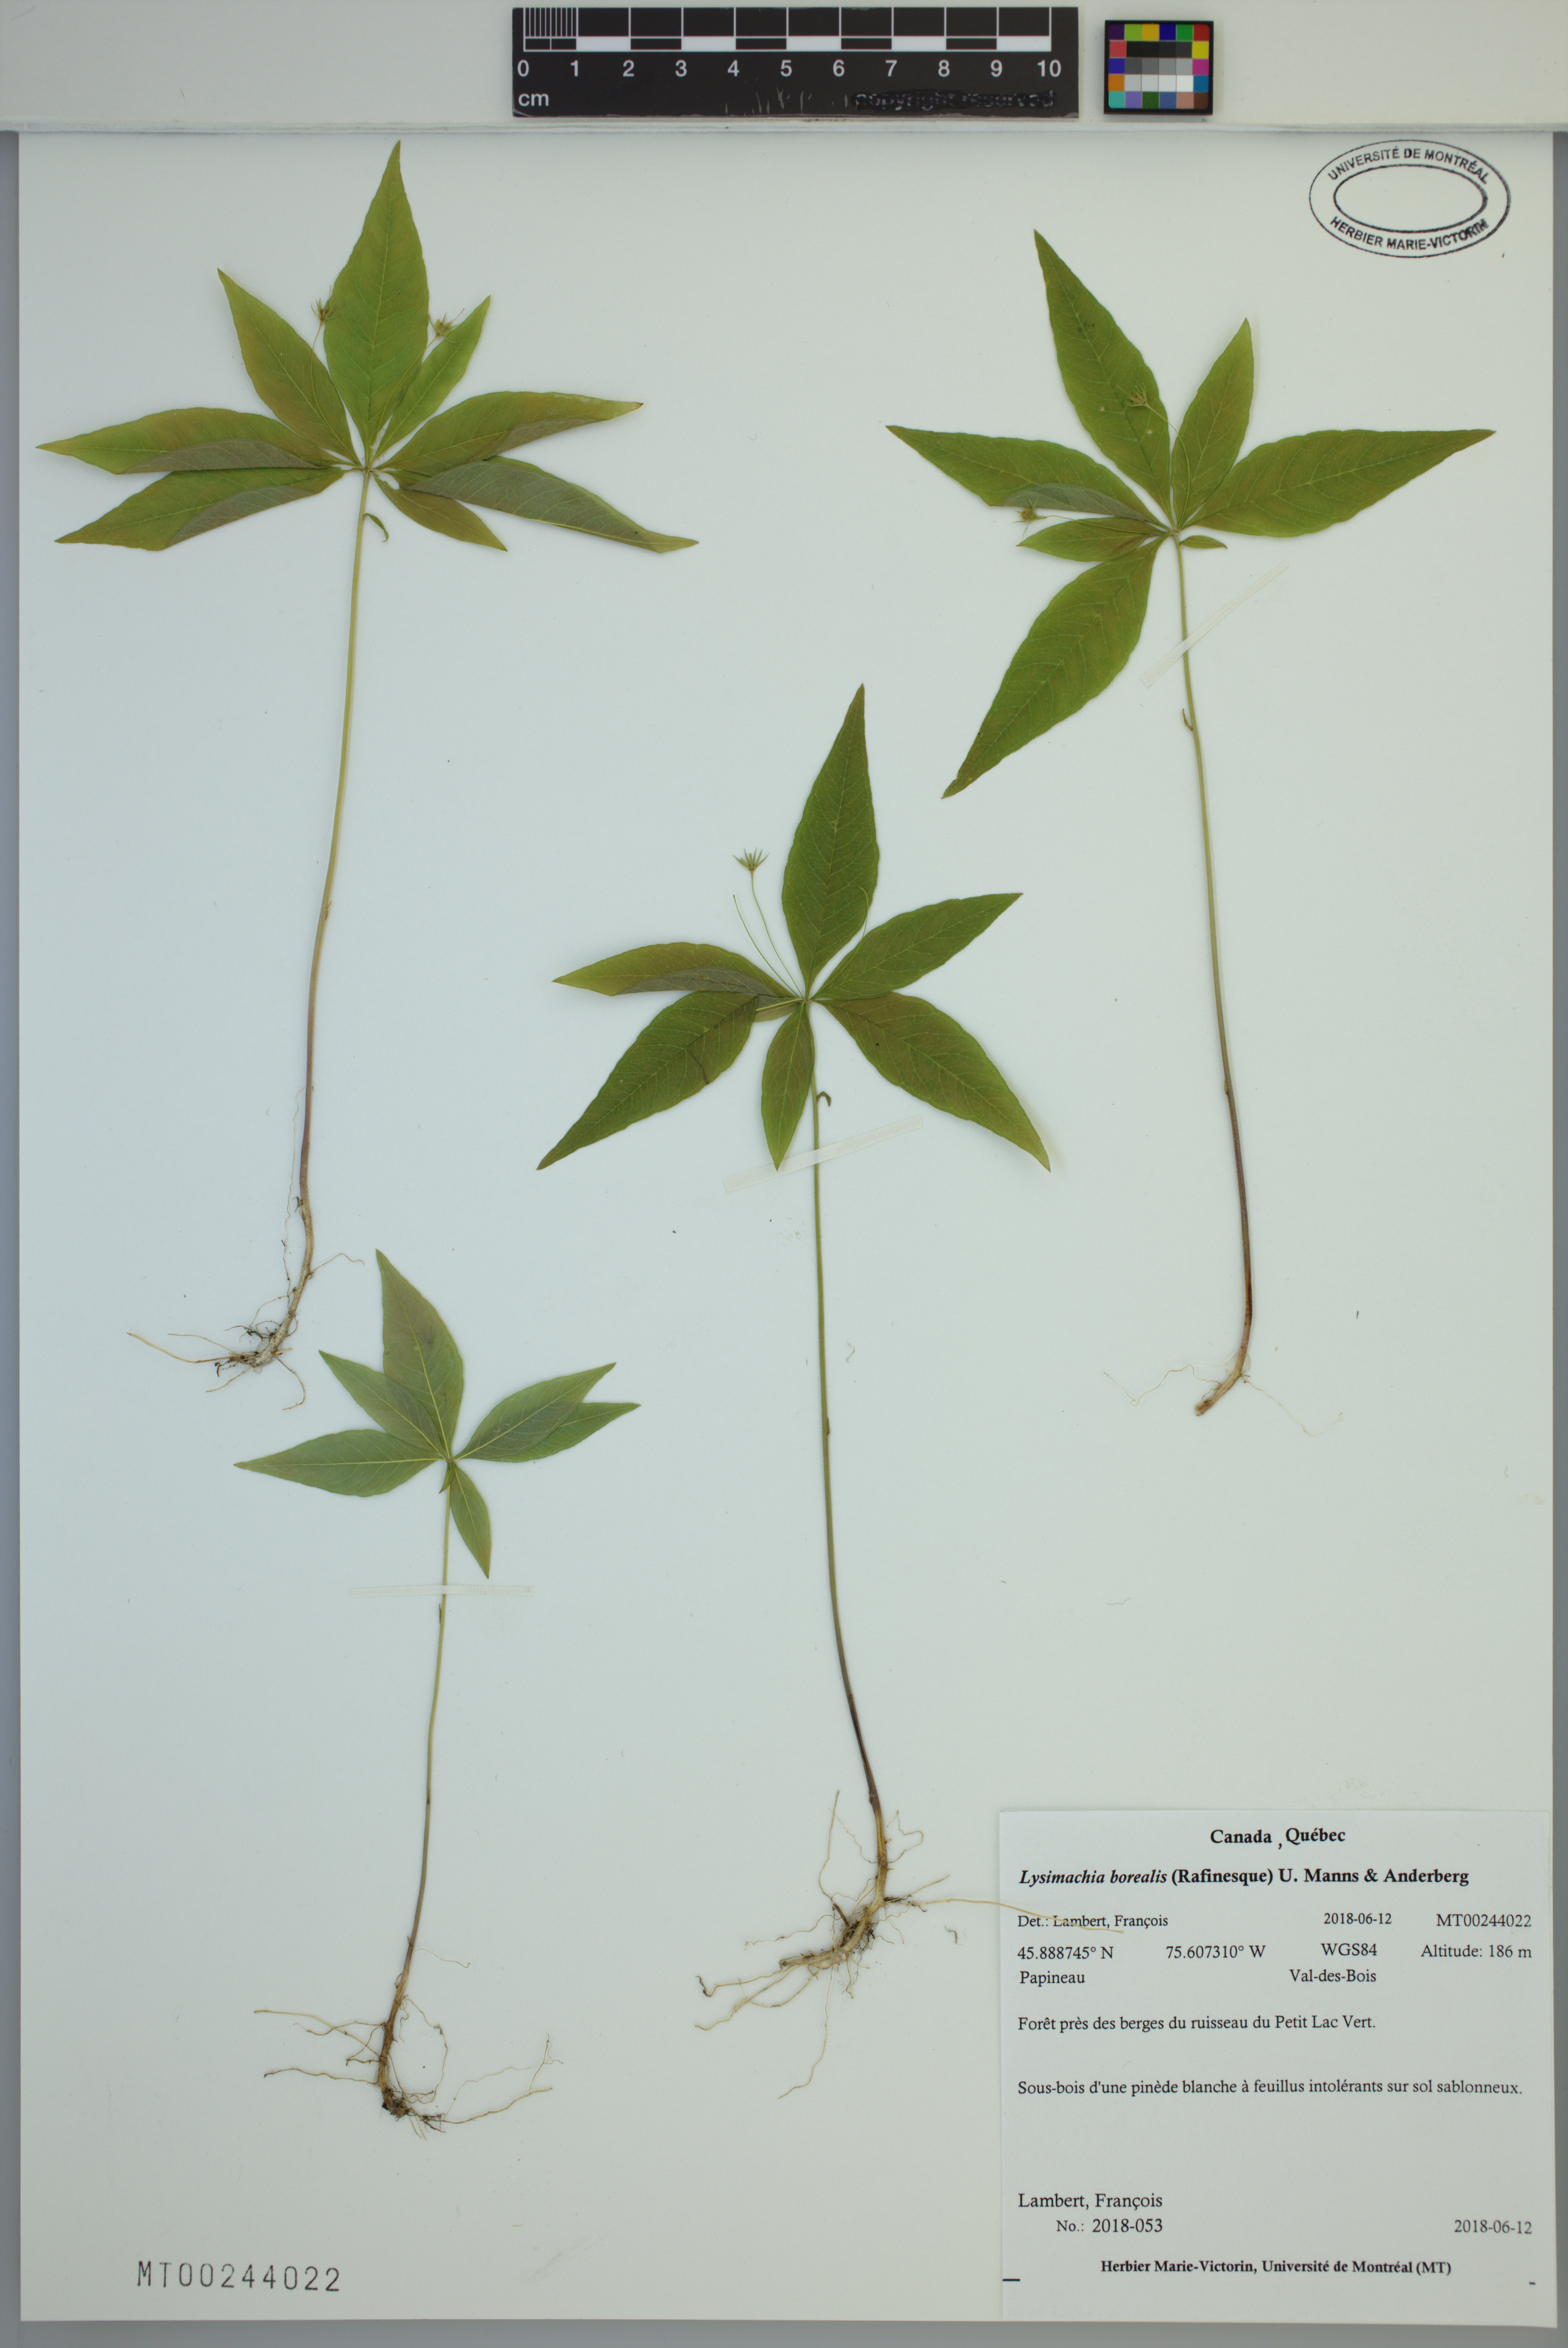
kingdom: Plantae
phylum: Tracheophyta
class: Magnoliopsida
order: Ericales
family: Primulaceae
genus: Lysimachia
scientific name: Lysimachia borealis
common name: American starflower
